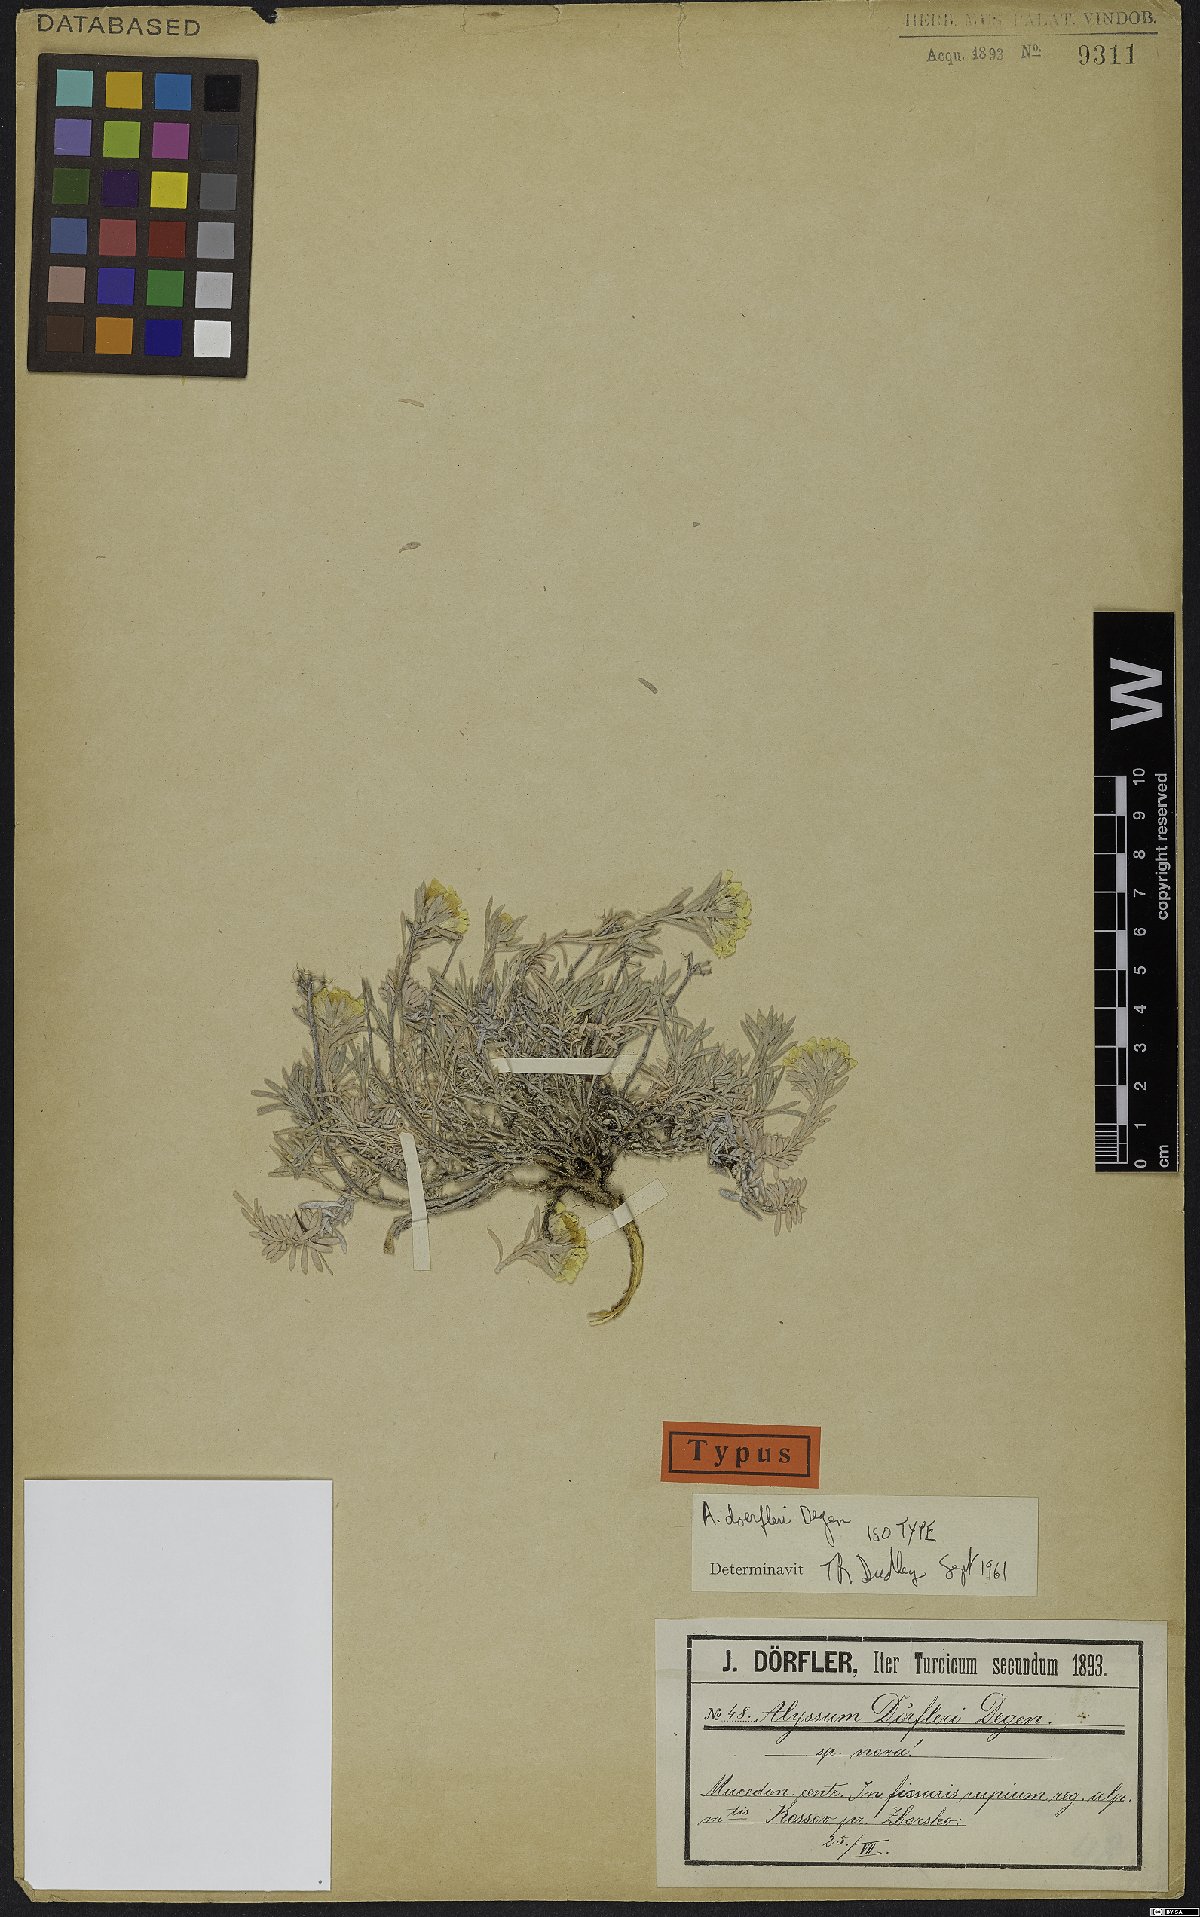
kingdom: Plantae
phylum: Tracheophyta
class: Magnoliopsida
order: Brassicales
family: Brassicaceae
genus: Alyssum
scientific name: Alyssum doerfleri
